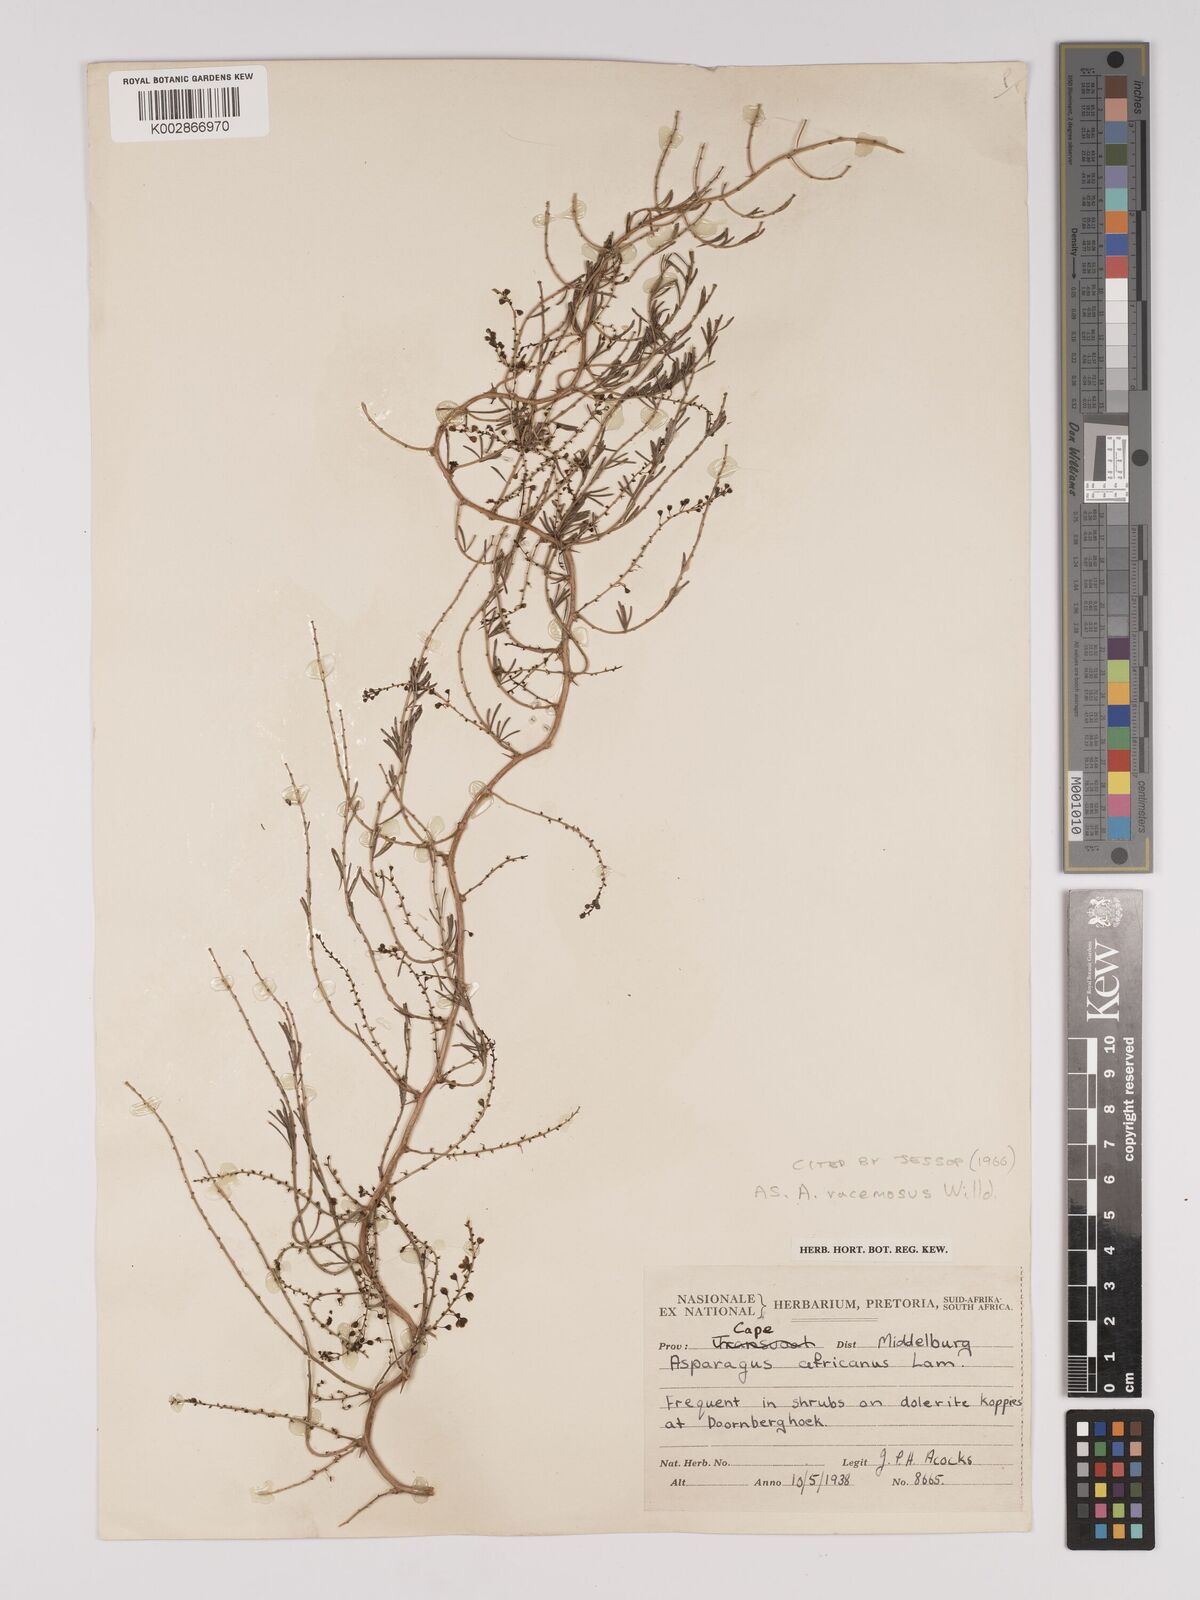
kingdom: Plantae
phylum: Tracheophyta
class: Liliopsida
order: Asparagales
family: Asparagaceae
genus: Asparagus
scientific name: Asparagus racemosus
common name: Asparagus-fern
